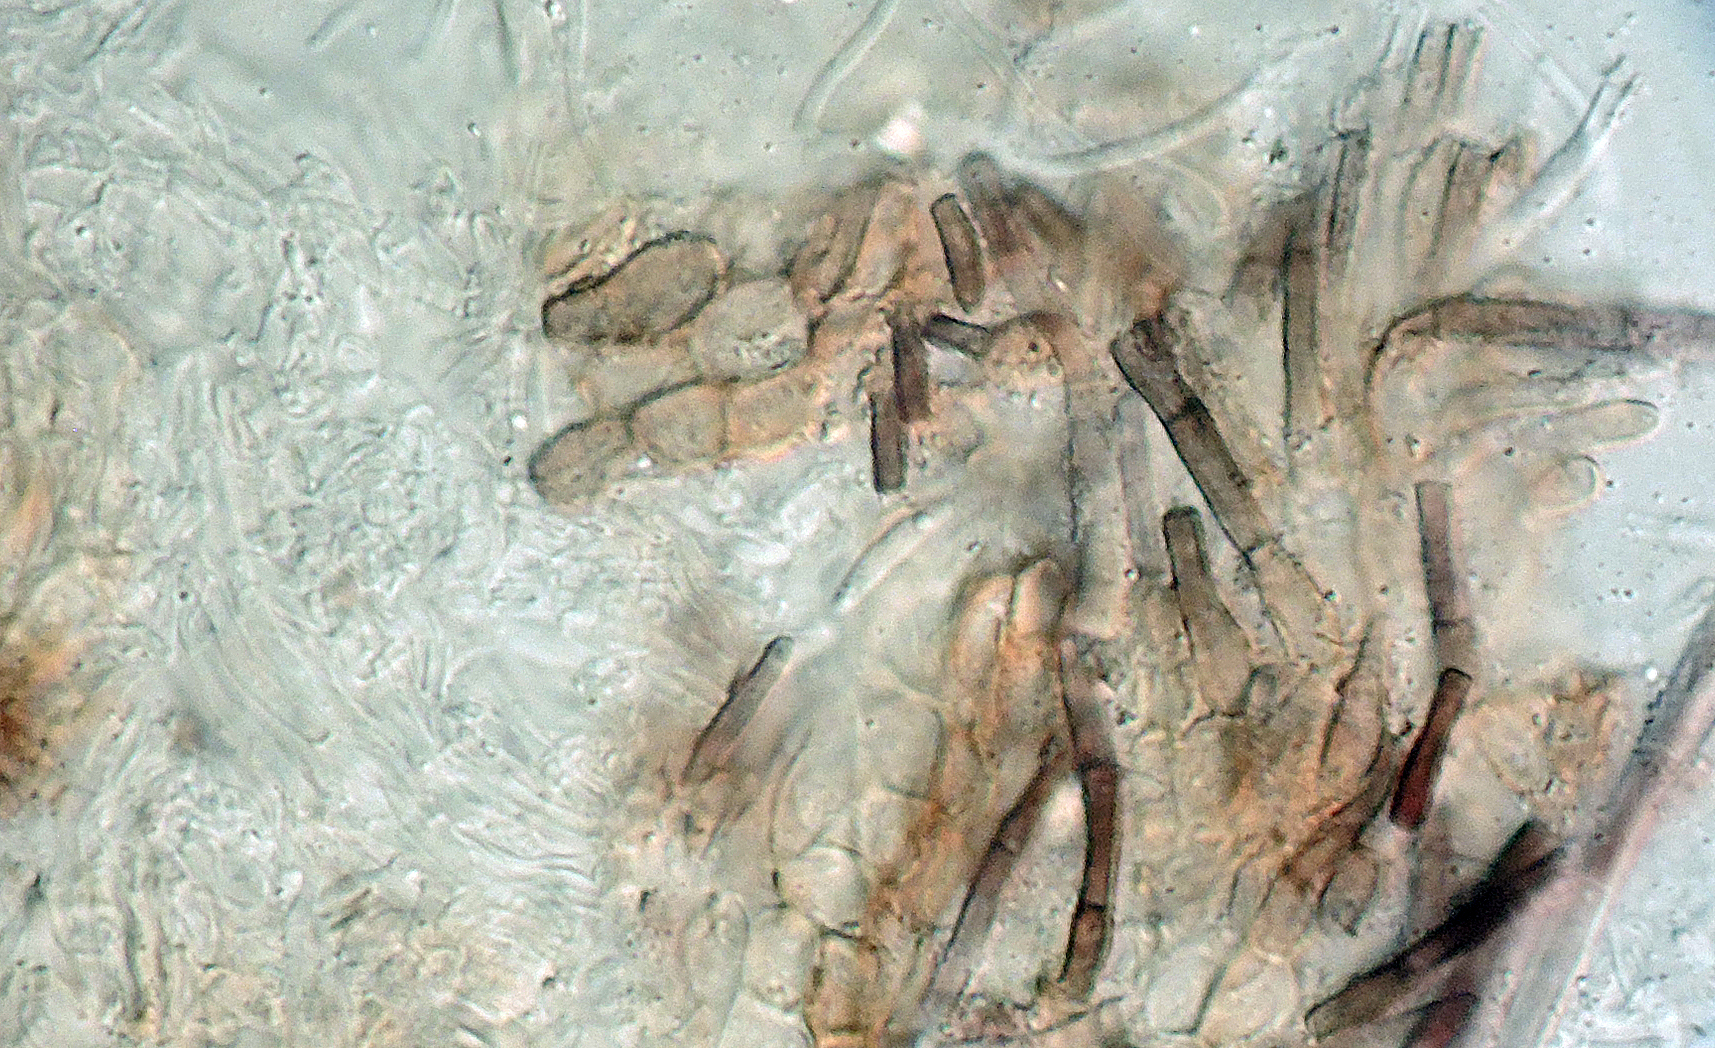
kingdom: Fungi
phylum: Ascomycota
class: Leotiomycetes
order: Helotiales
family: Solenopeziaceae
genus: Lasiobelonium
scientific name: Lasiobelonium elegantulum
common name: purpurbrun frynseskive
